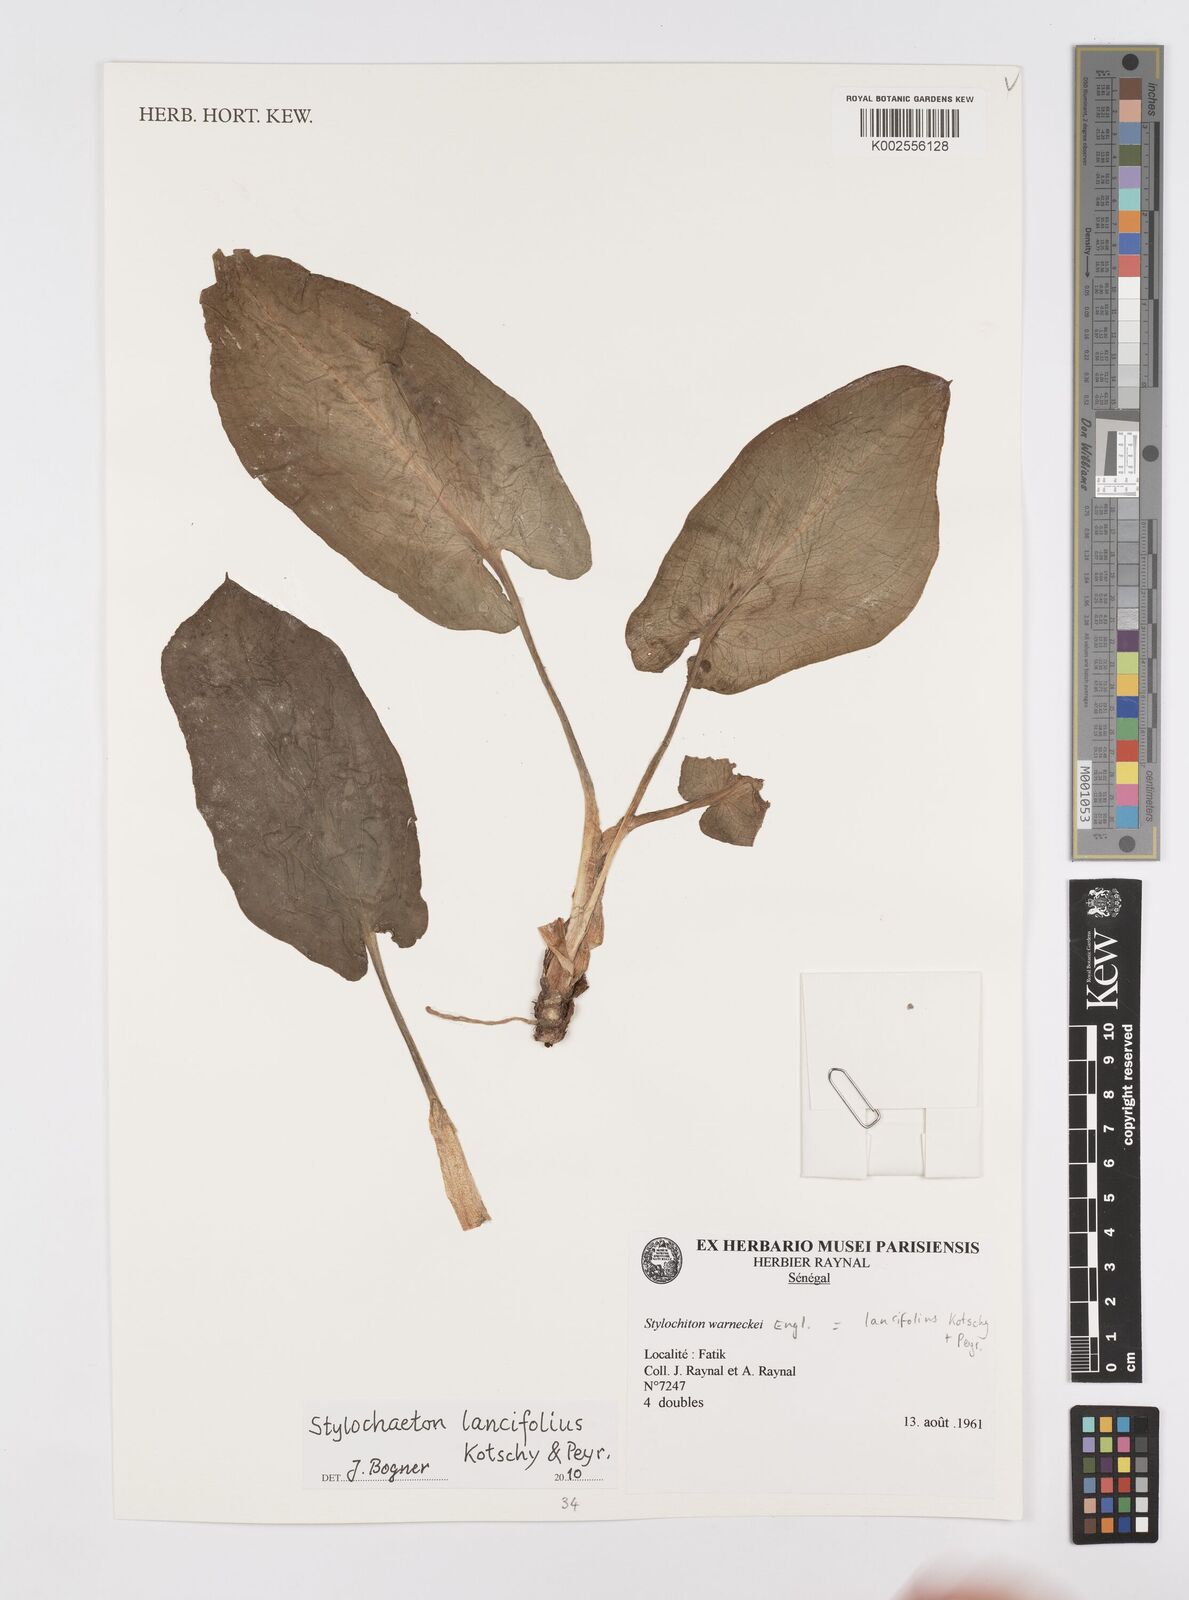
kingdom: Plantae
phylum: Tracheophyta
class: Liliopsida
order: Alismatales
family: Araceae
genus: Stylochaeton
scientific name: Stylochaeton lancifolium
